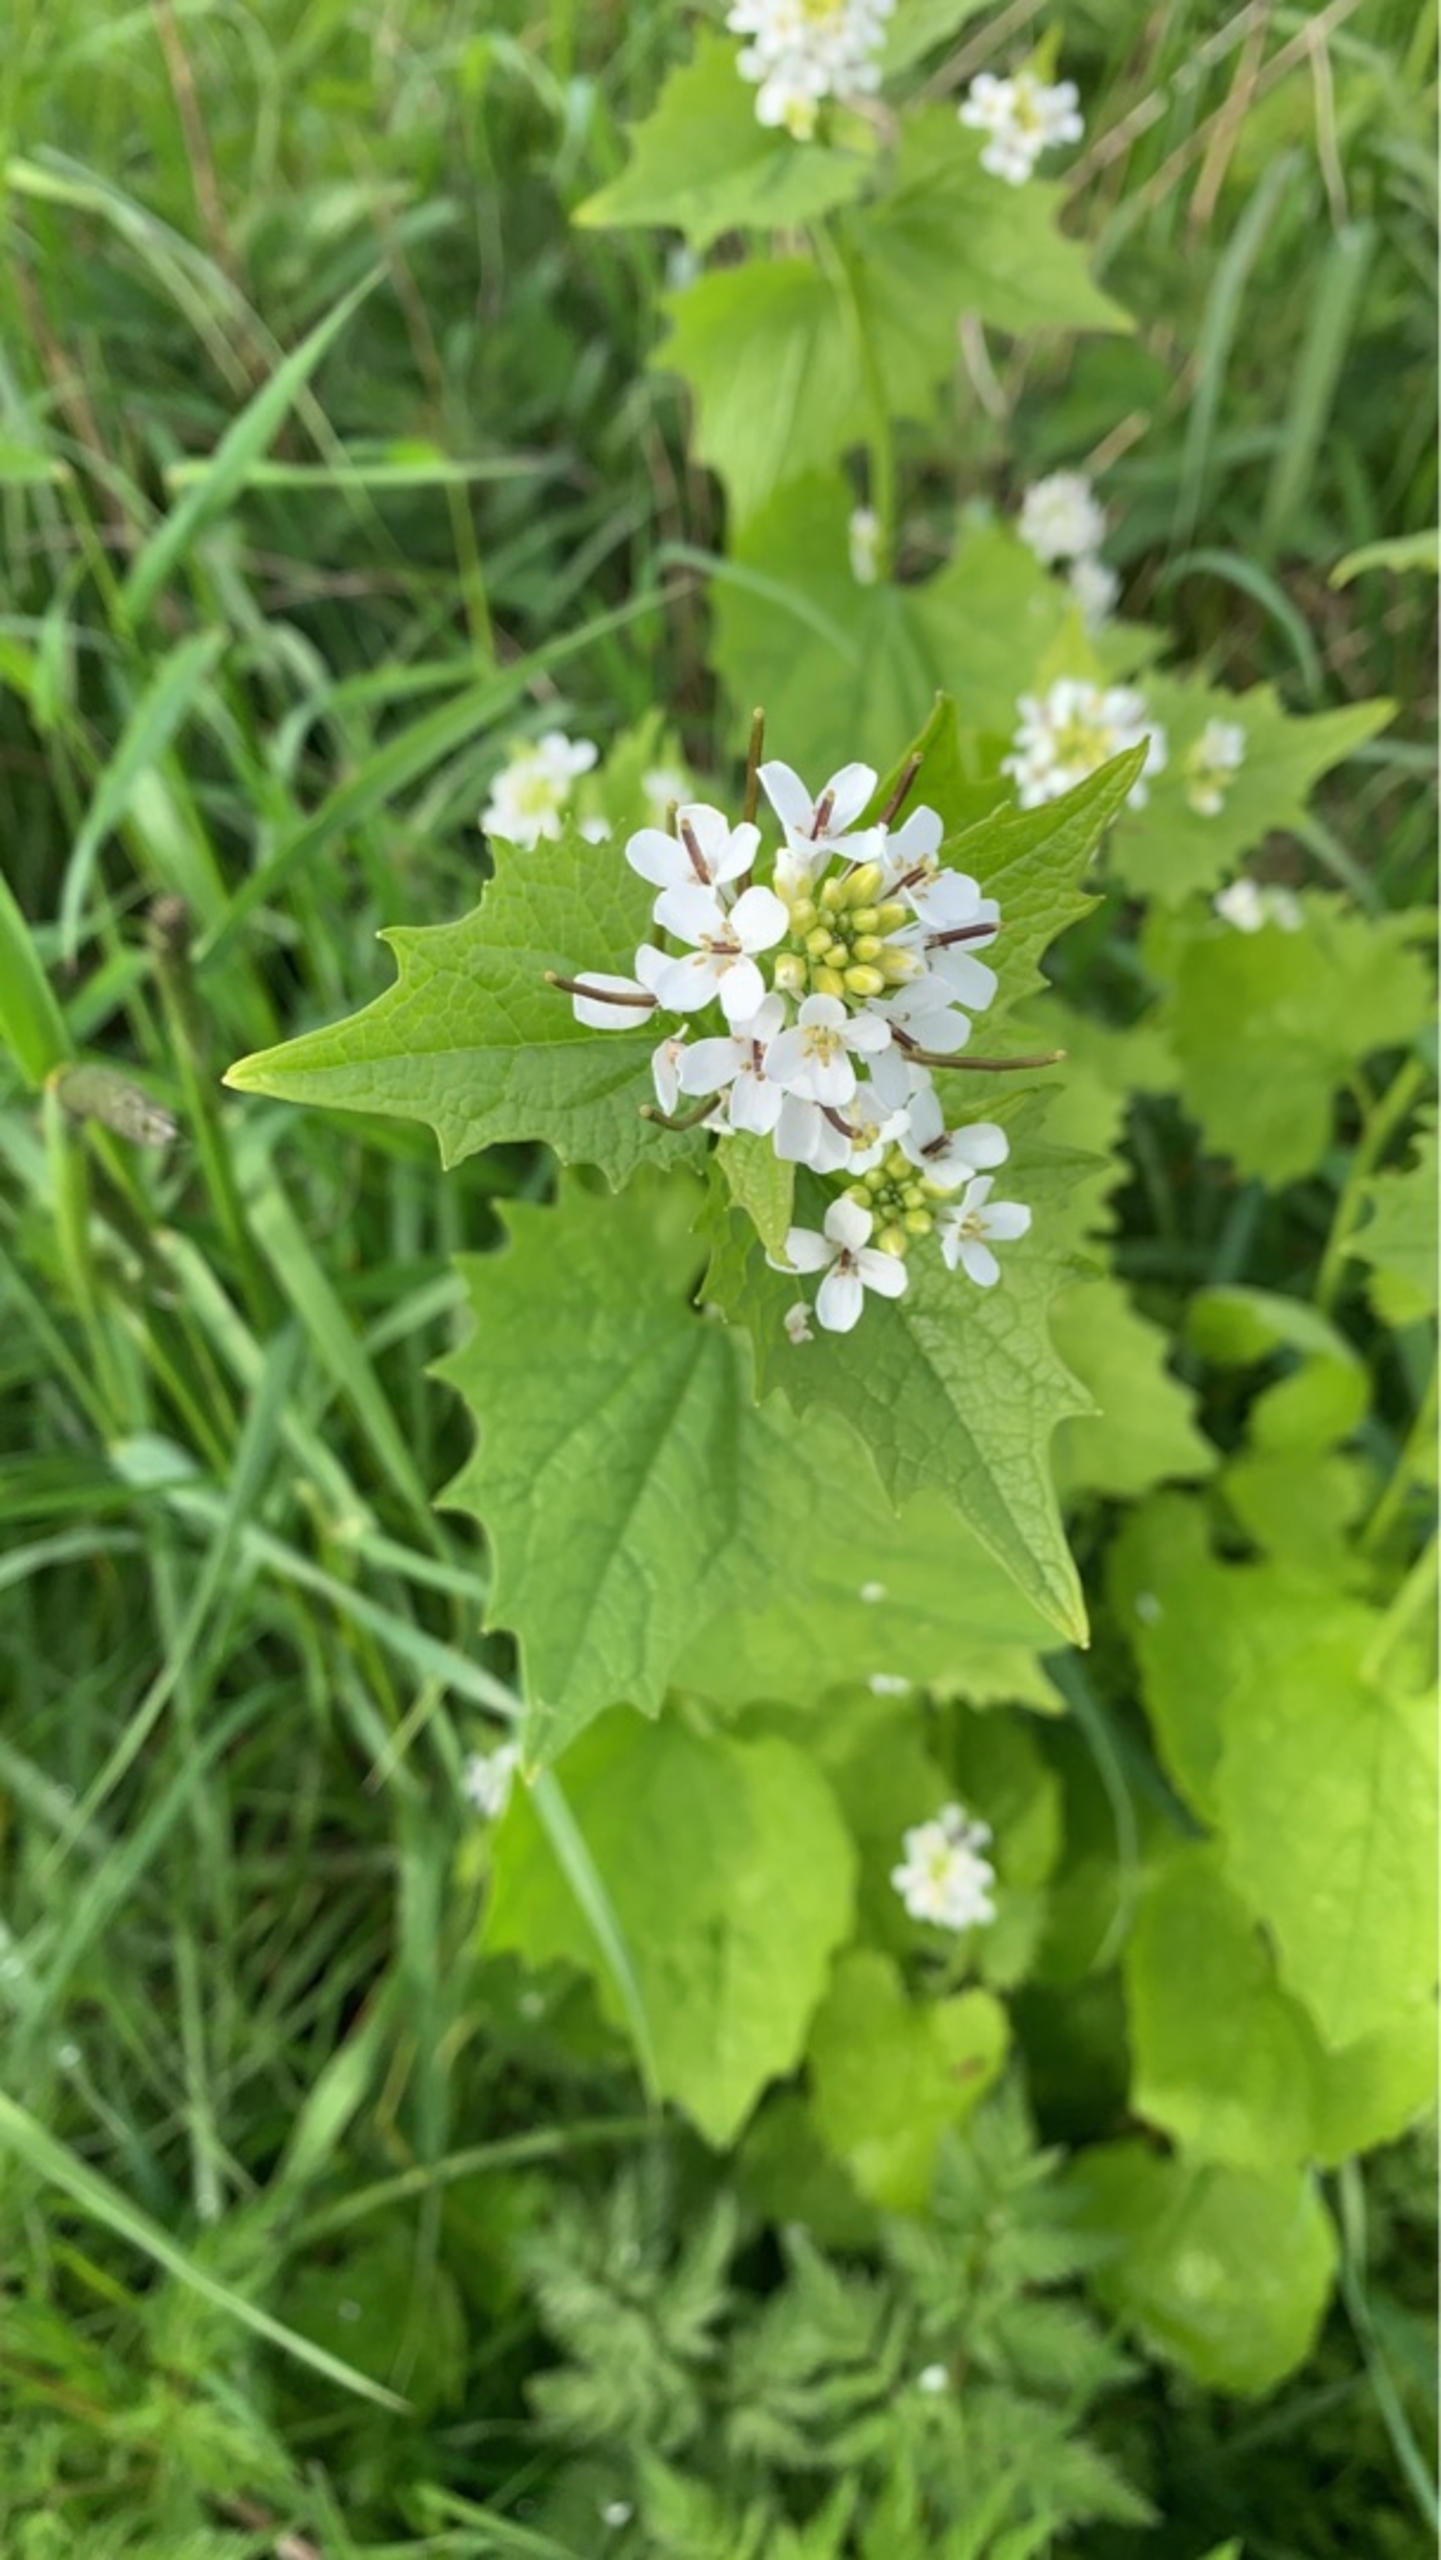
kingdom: Plantae
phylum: Tracheophyta
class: Magnoliopsida
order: Brassicales
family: Brassicaceae
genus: Alliaria
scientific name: Alliaria petiolata
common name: Løgkarse
